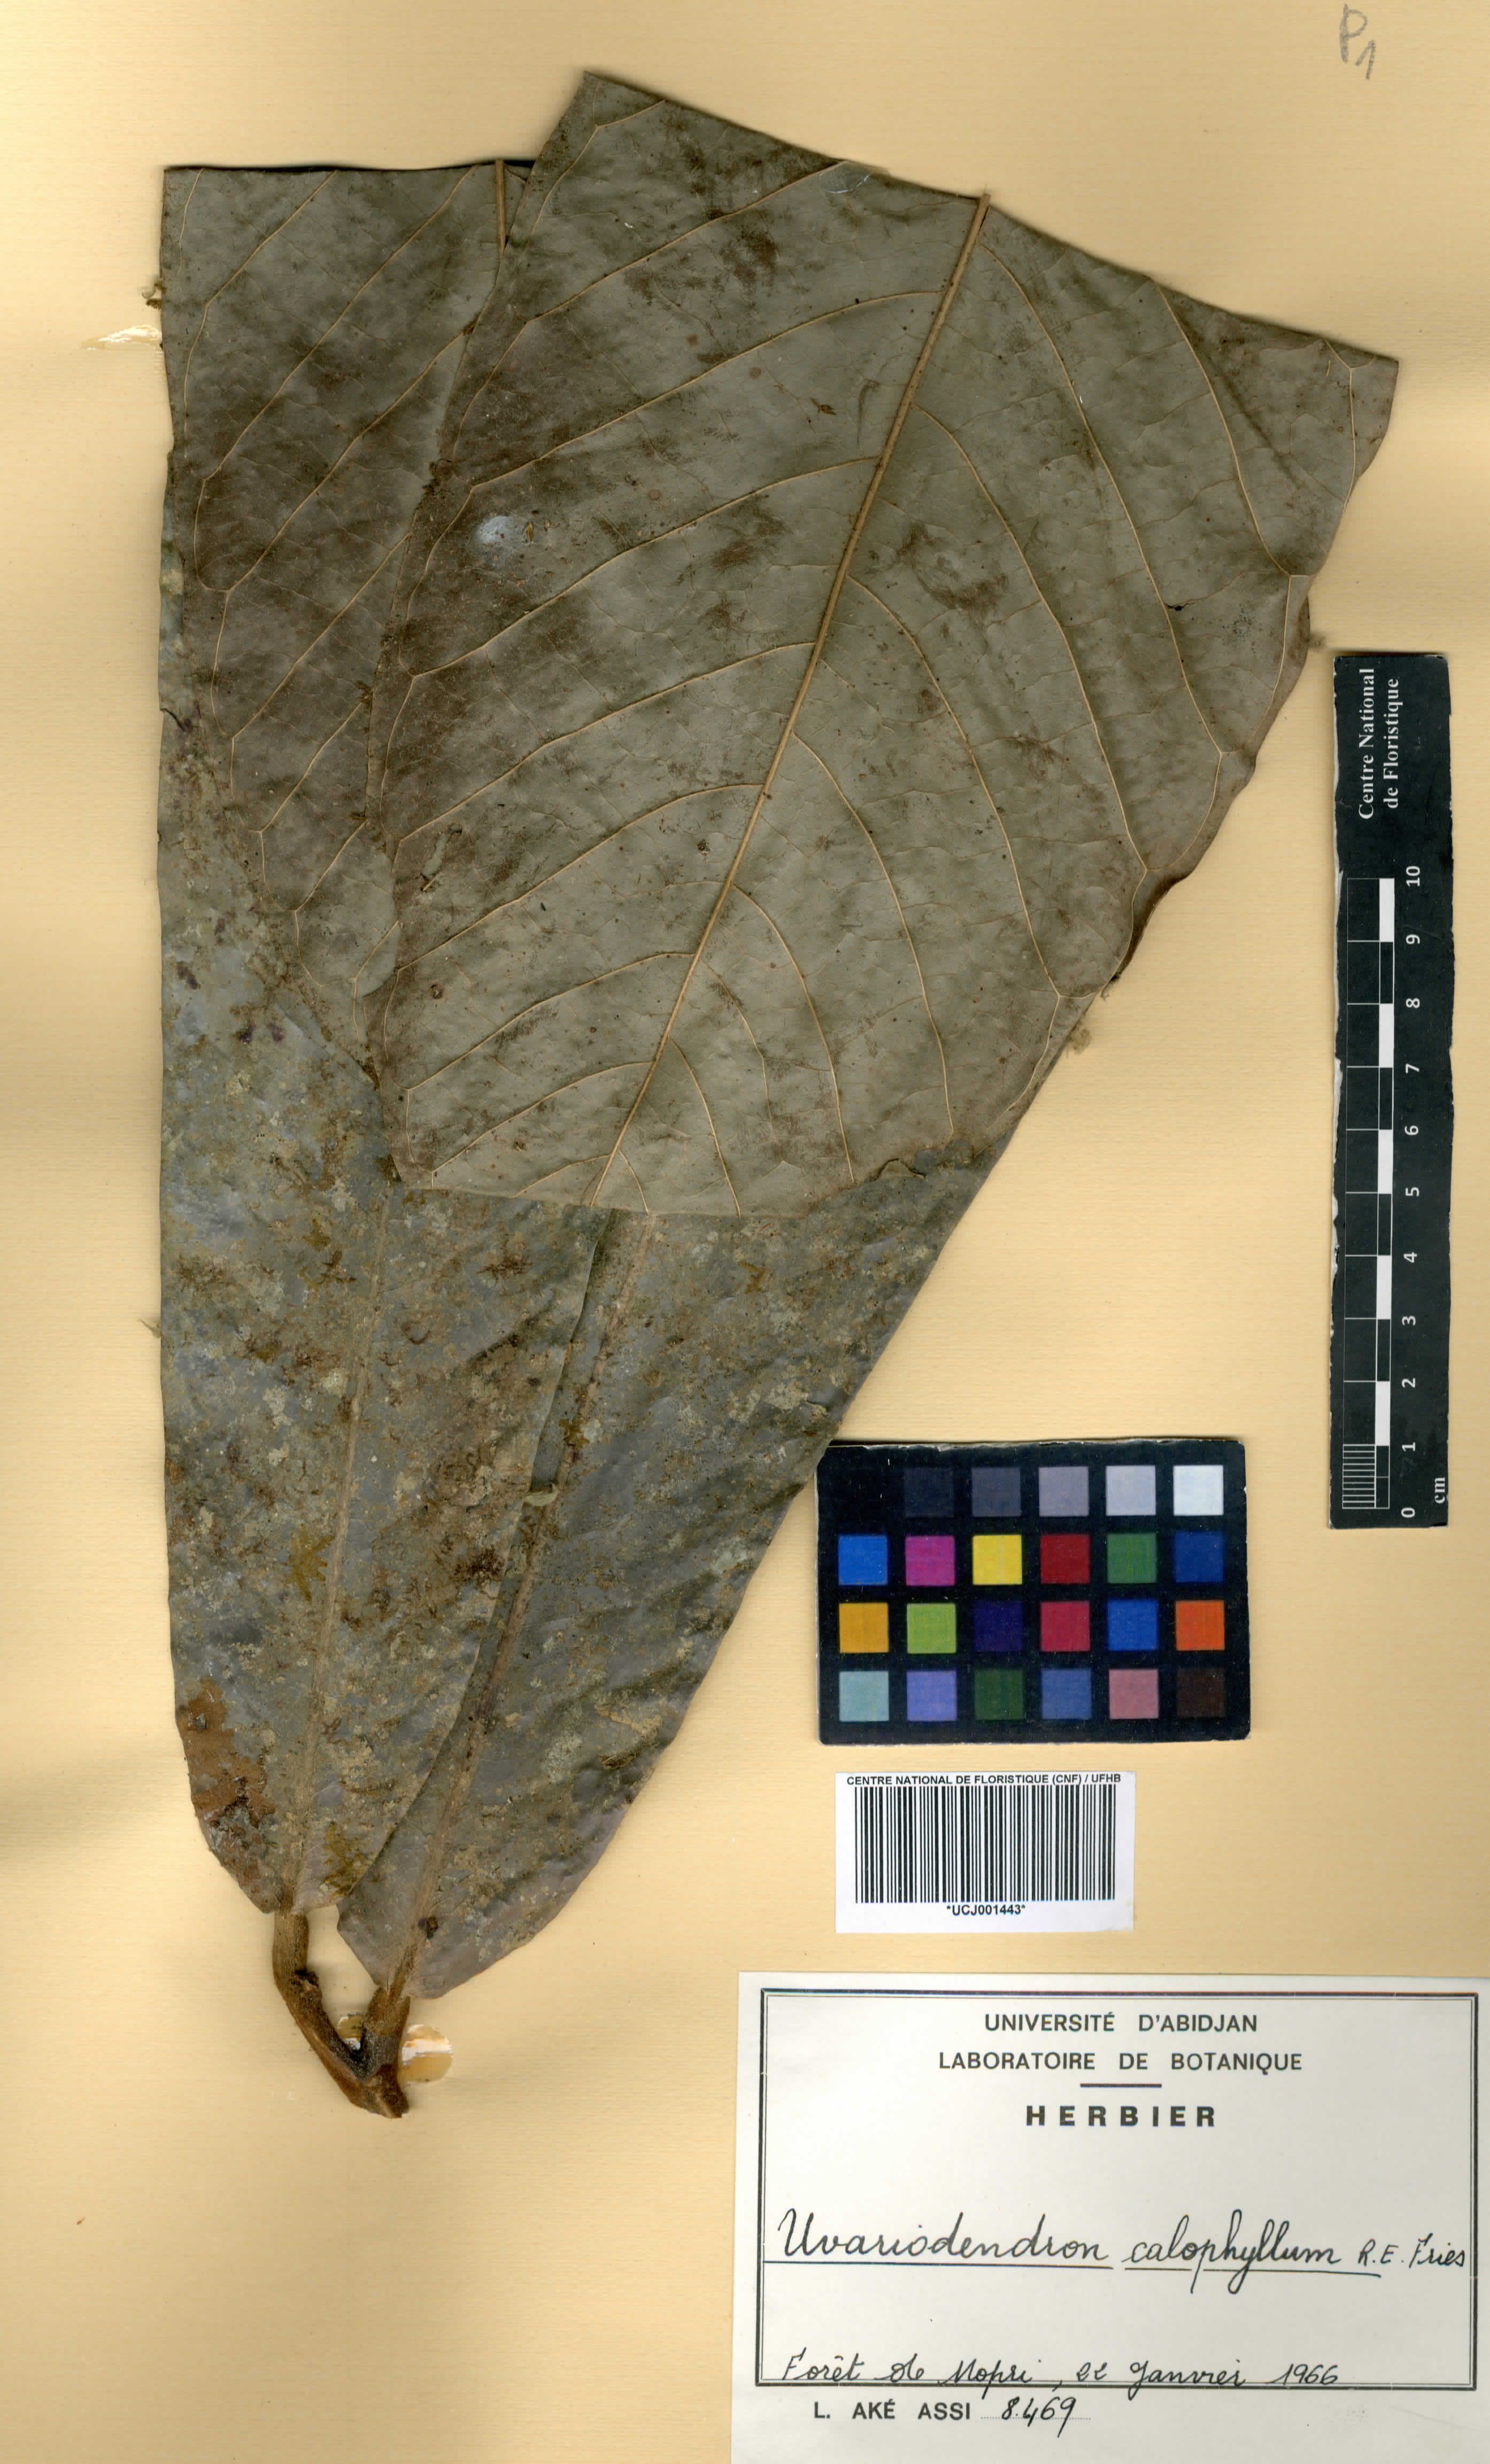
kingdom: Plantae
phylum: Tracheophyta
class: Magnoliopsida
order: Magnoliales
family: Annonaceae
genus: Uvariodendron
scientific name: Uvariodendron calophyllum
